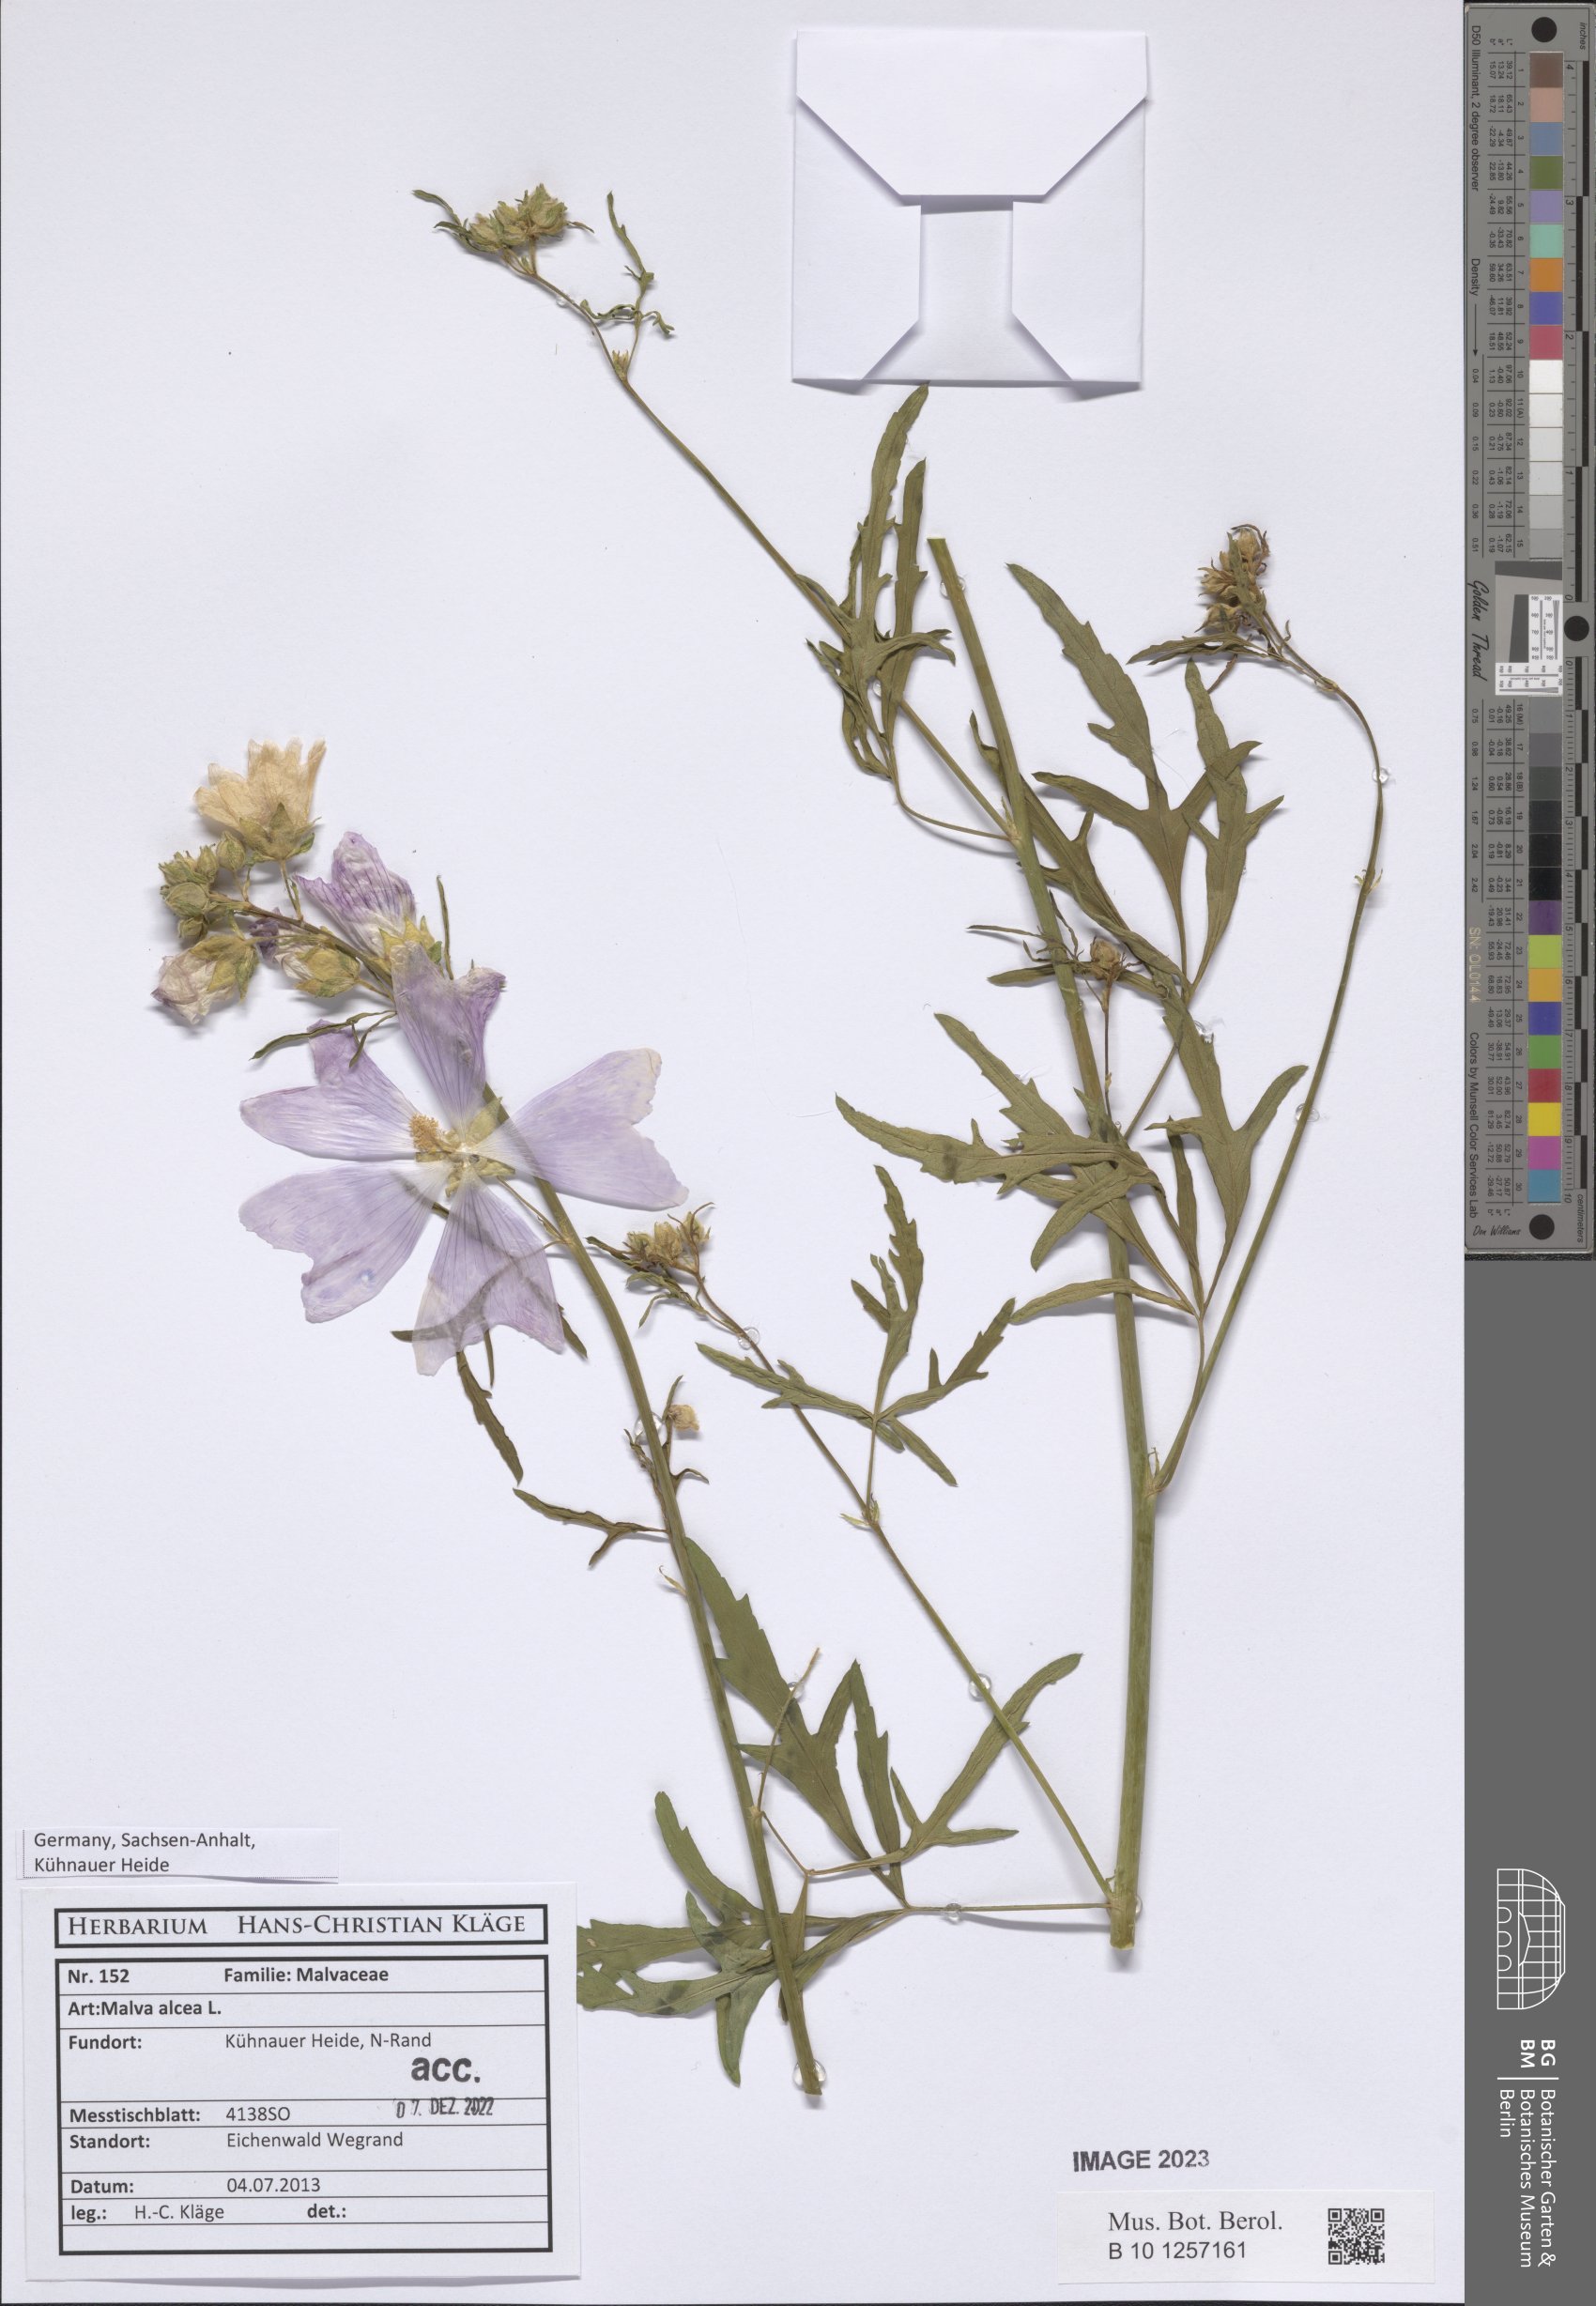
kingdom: Plantae
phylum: Tracheophyta
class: Magnoliopsida
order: Malvales
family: Malvaceae
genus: Malva
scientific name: Malva alcea
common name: Greater musk-mallow
